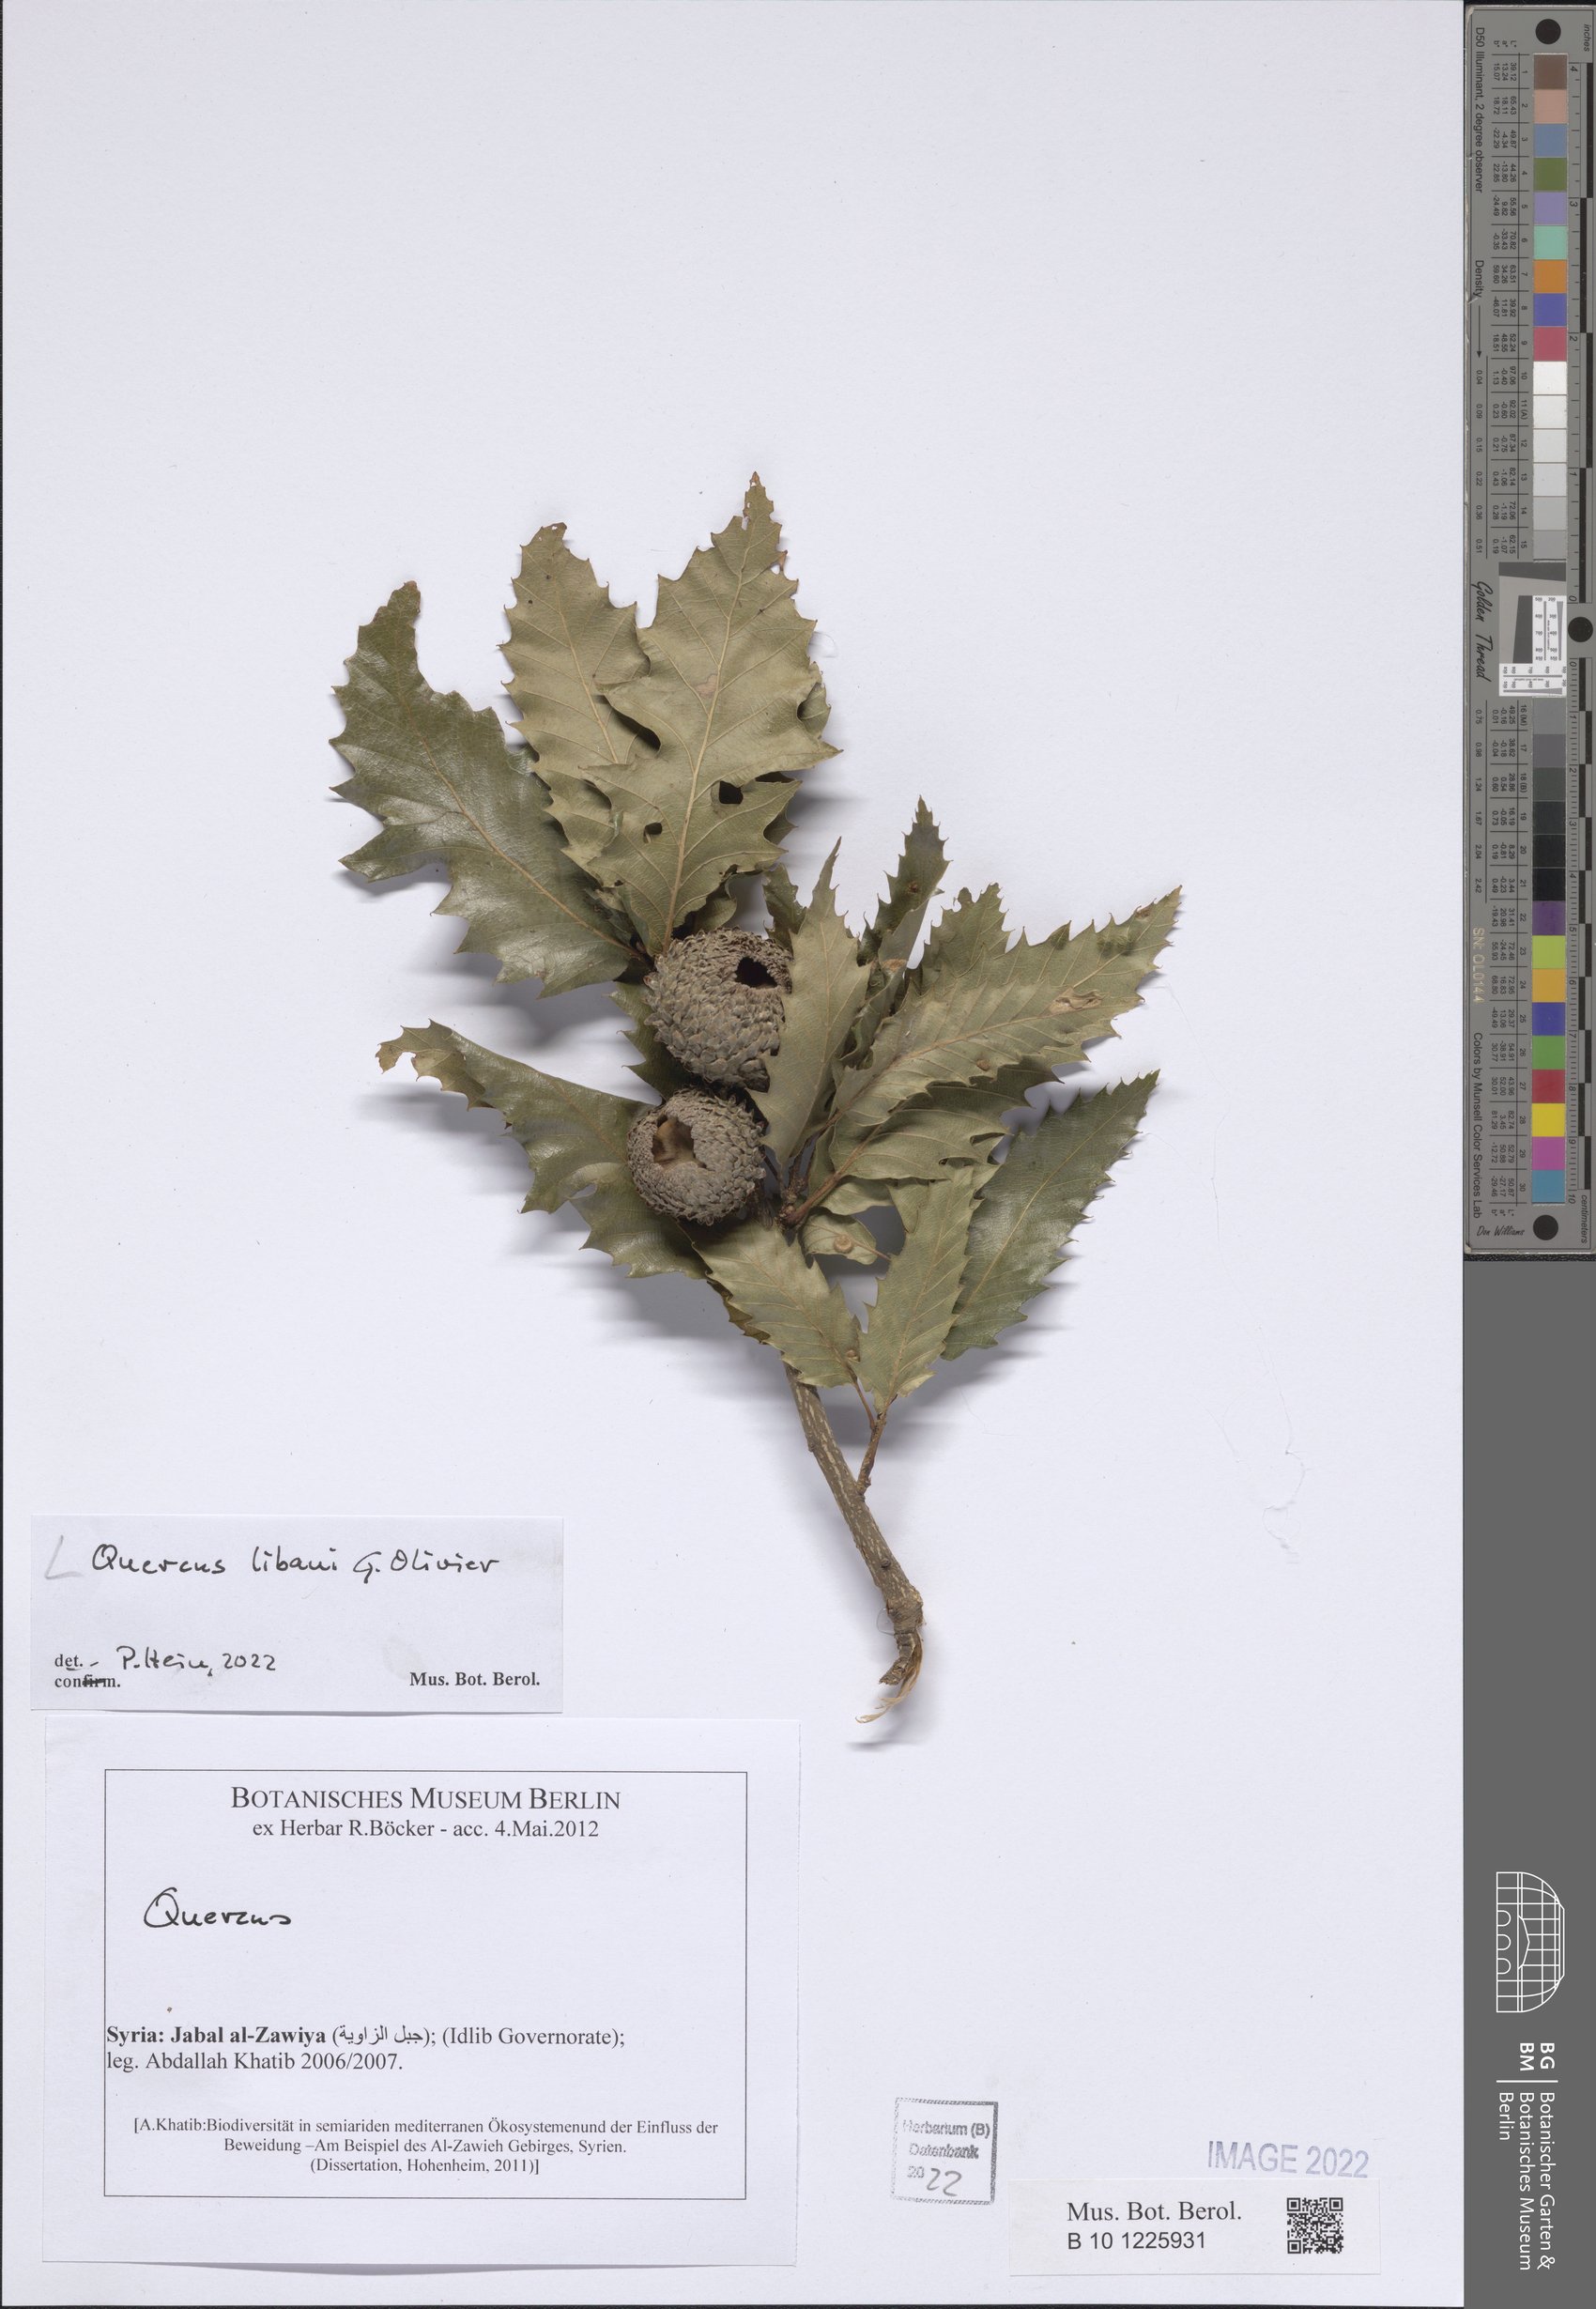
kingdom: Plantae
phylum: Tracheophyta
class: Magnoliopsida
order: Fagales
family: Fagaceae
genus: Quercus
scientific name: Quercus libani
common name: Lebanon oak
